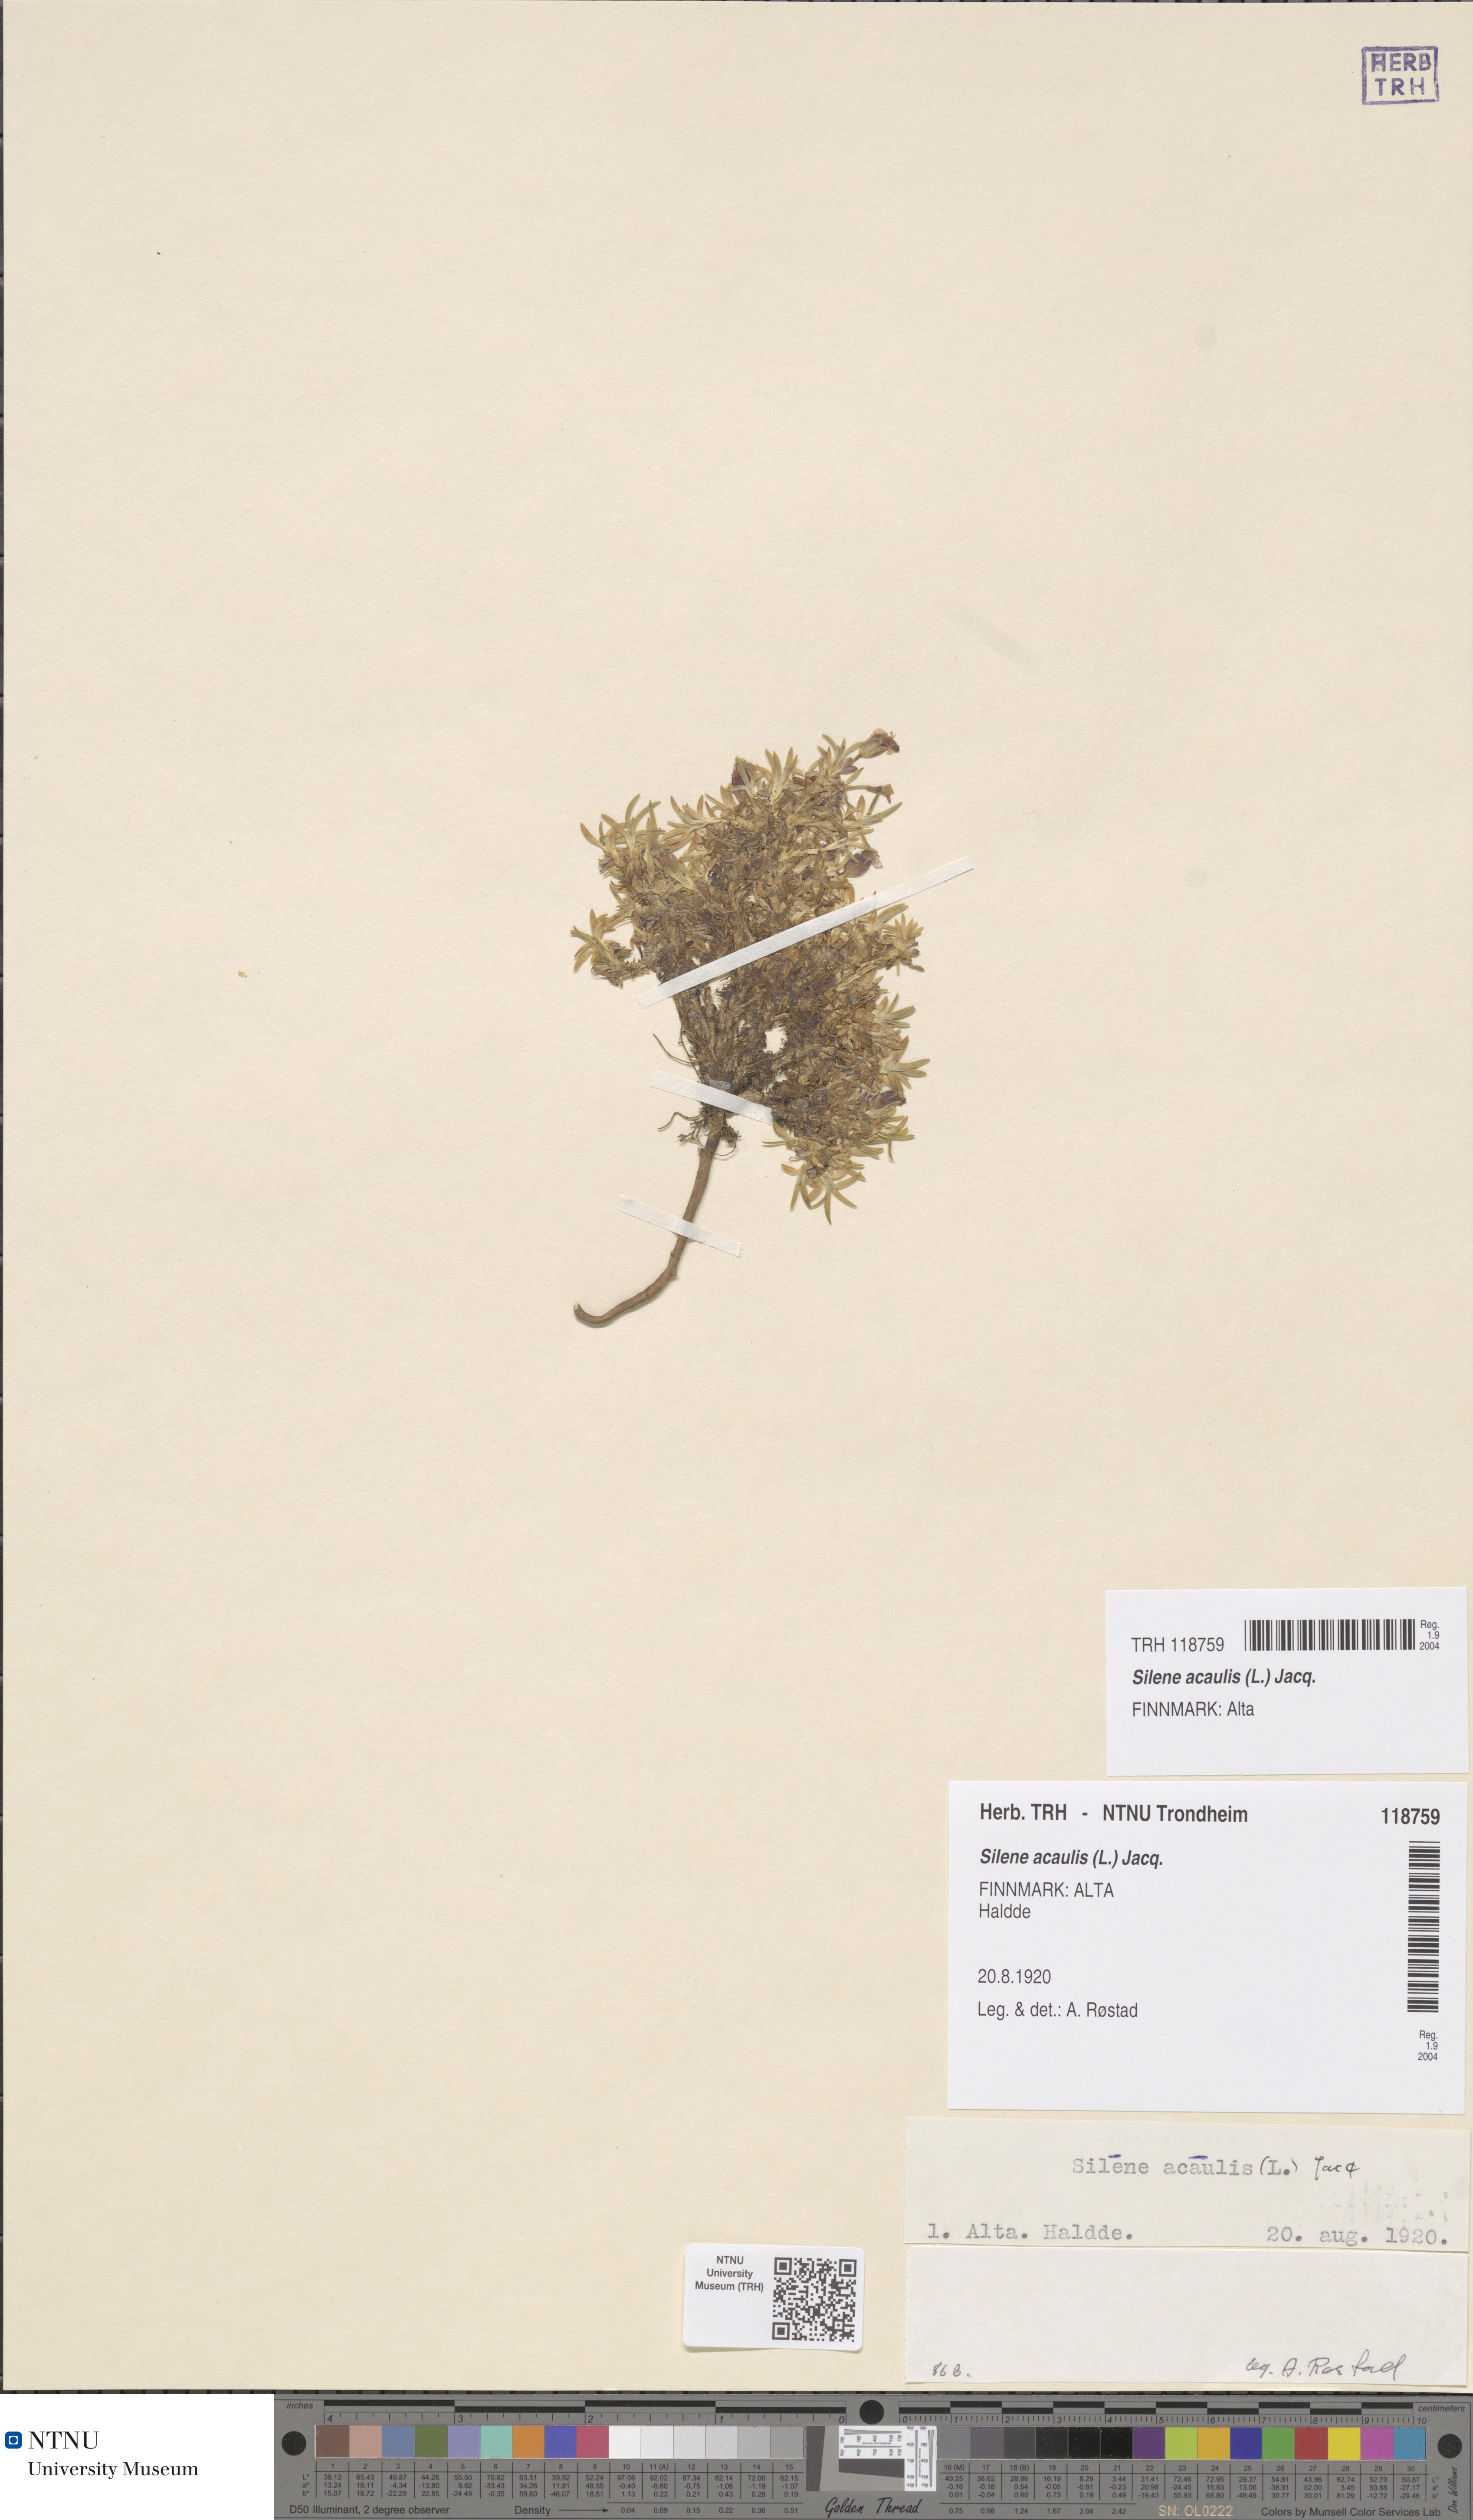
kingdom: Plantae
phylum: Tracheophyta
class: Magnoliopsida
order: Caryophyllales
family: Caryophyllaceae
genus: Silene
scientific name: Silene acaulis
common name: Moss campion
